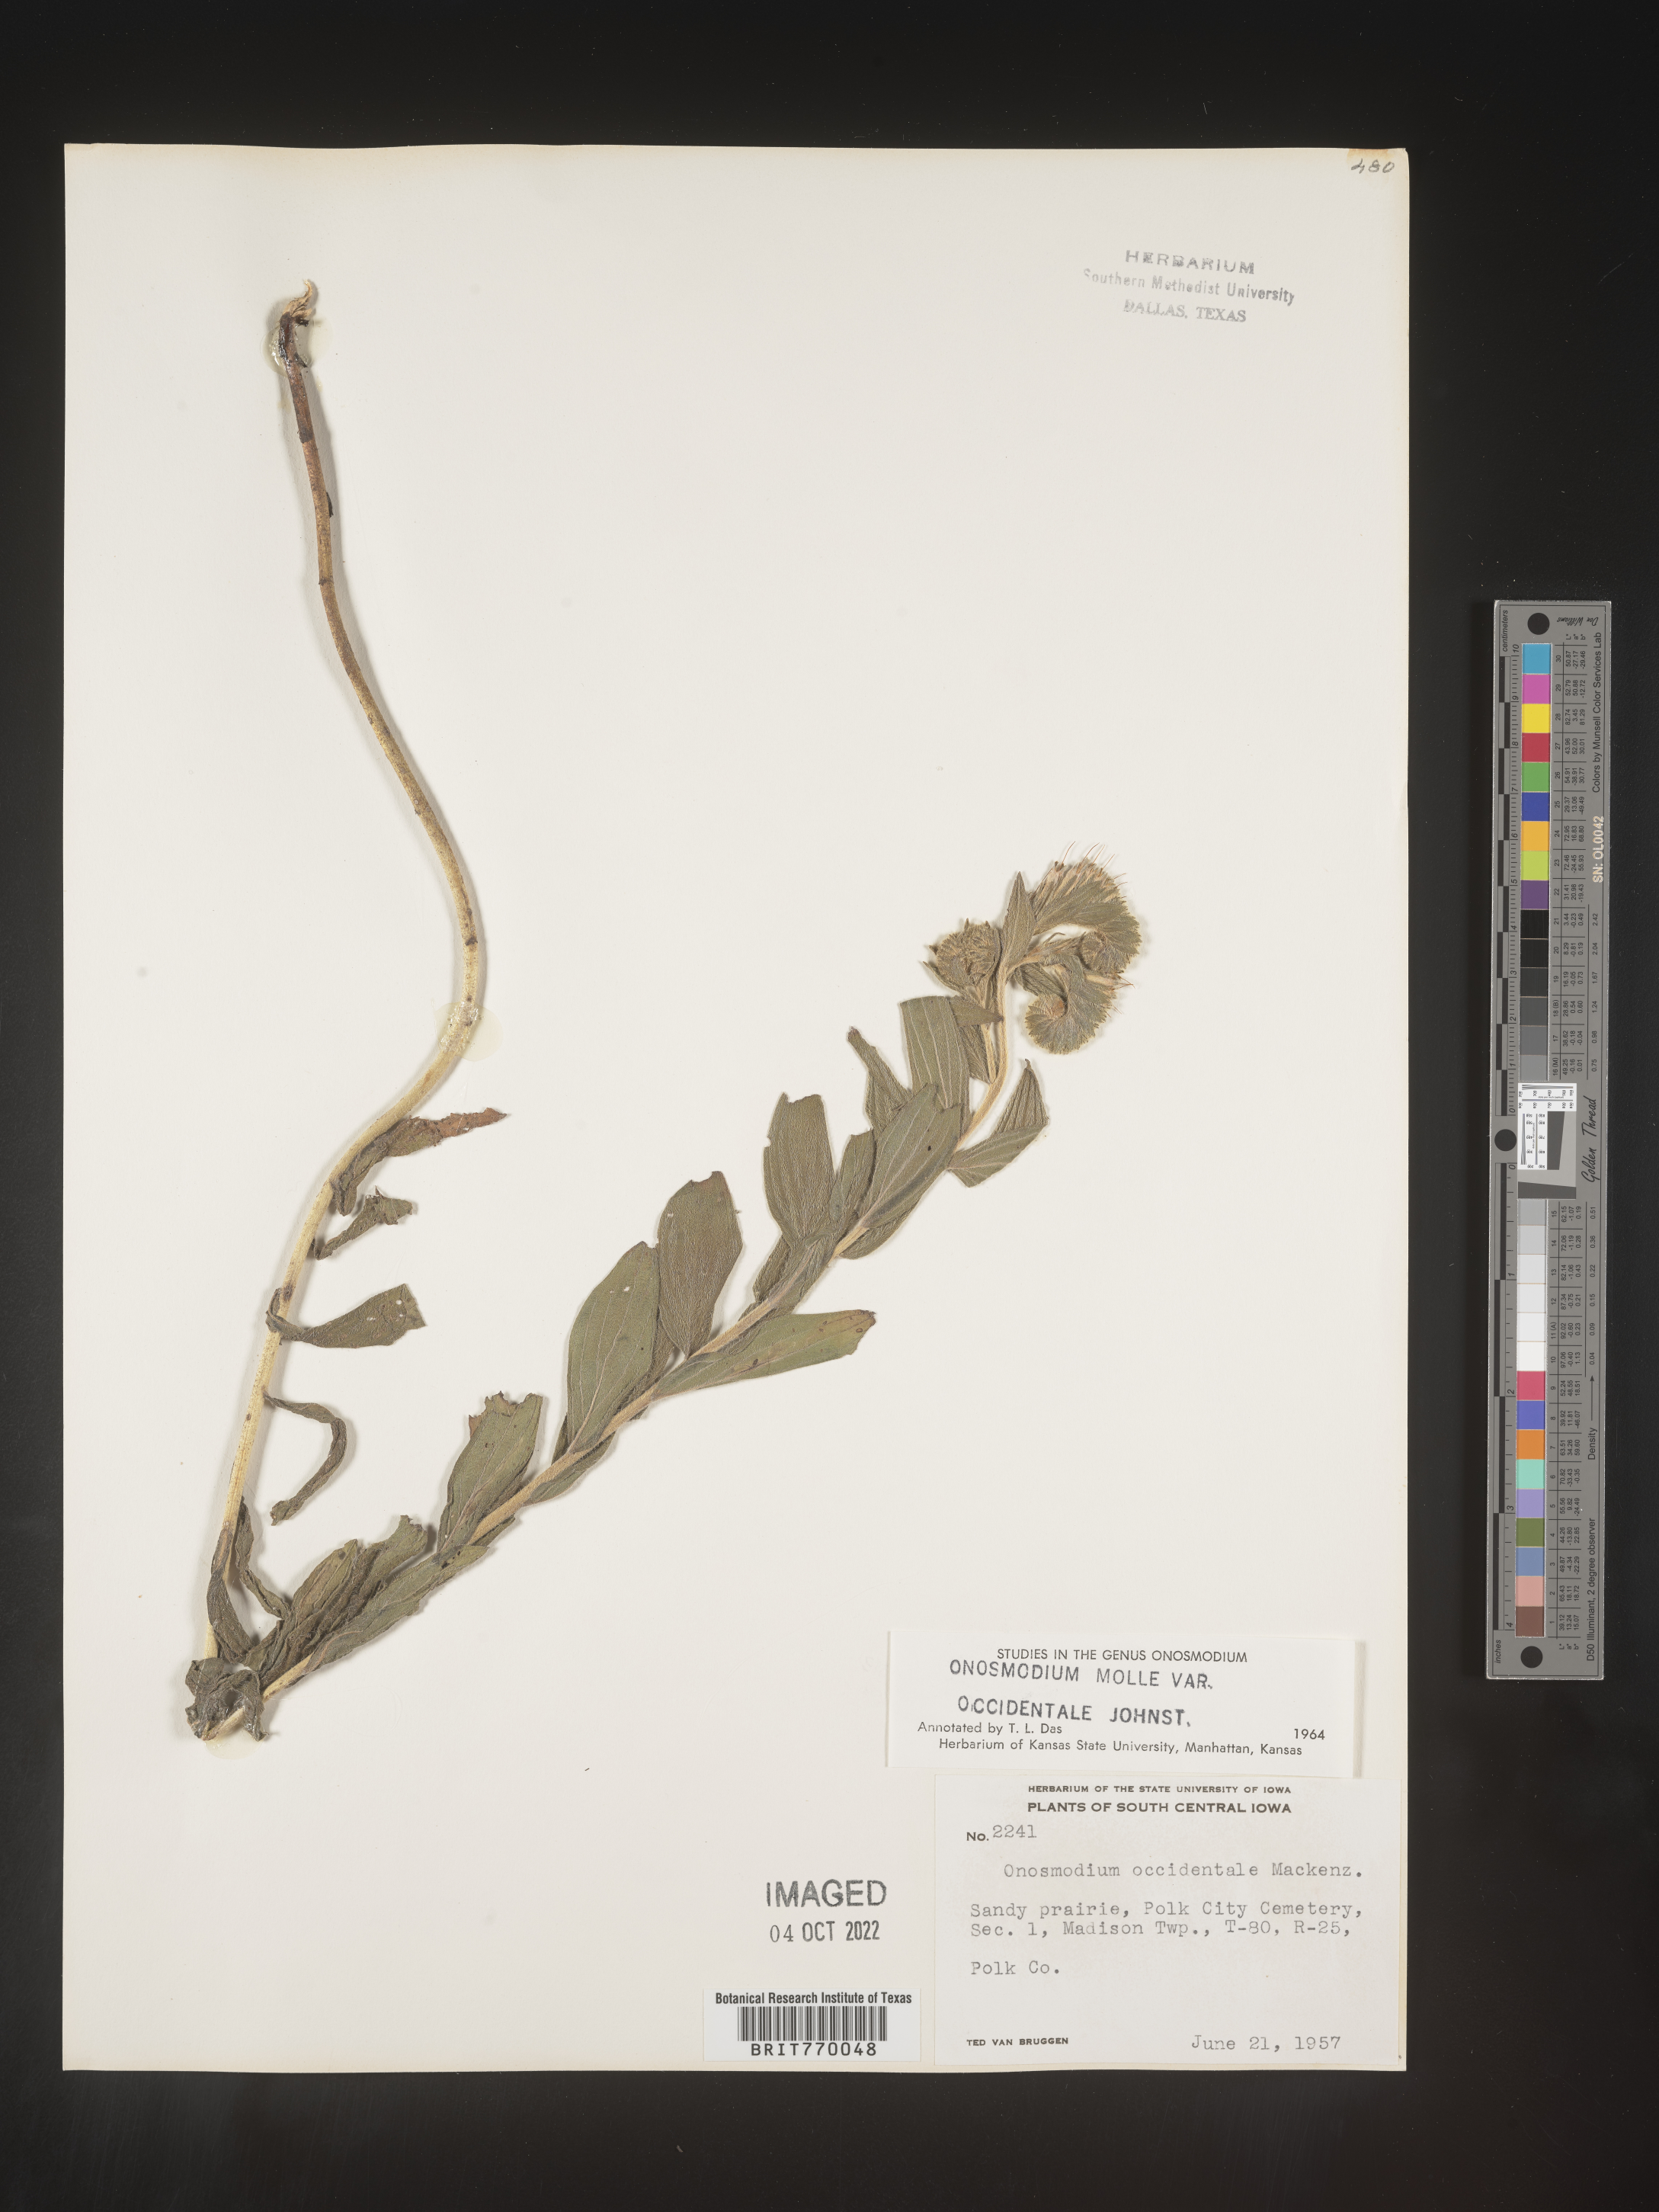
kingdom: Plantae
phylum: Tracheophyta
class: Magnoliopsida
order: Boraginales
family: Boraginaceae
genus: Lithospermum
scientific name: Lithospermum occidentale
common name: Western false gromwell
